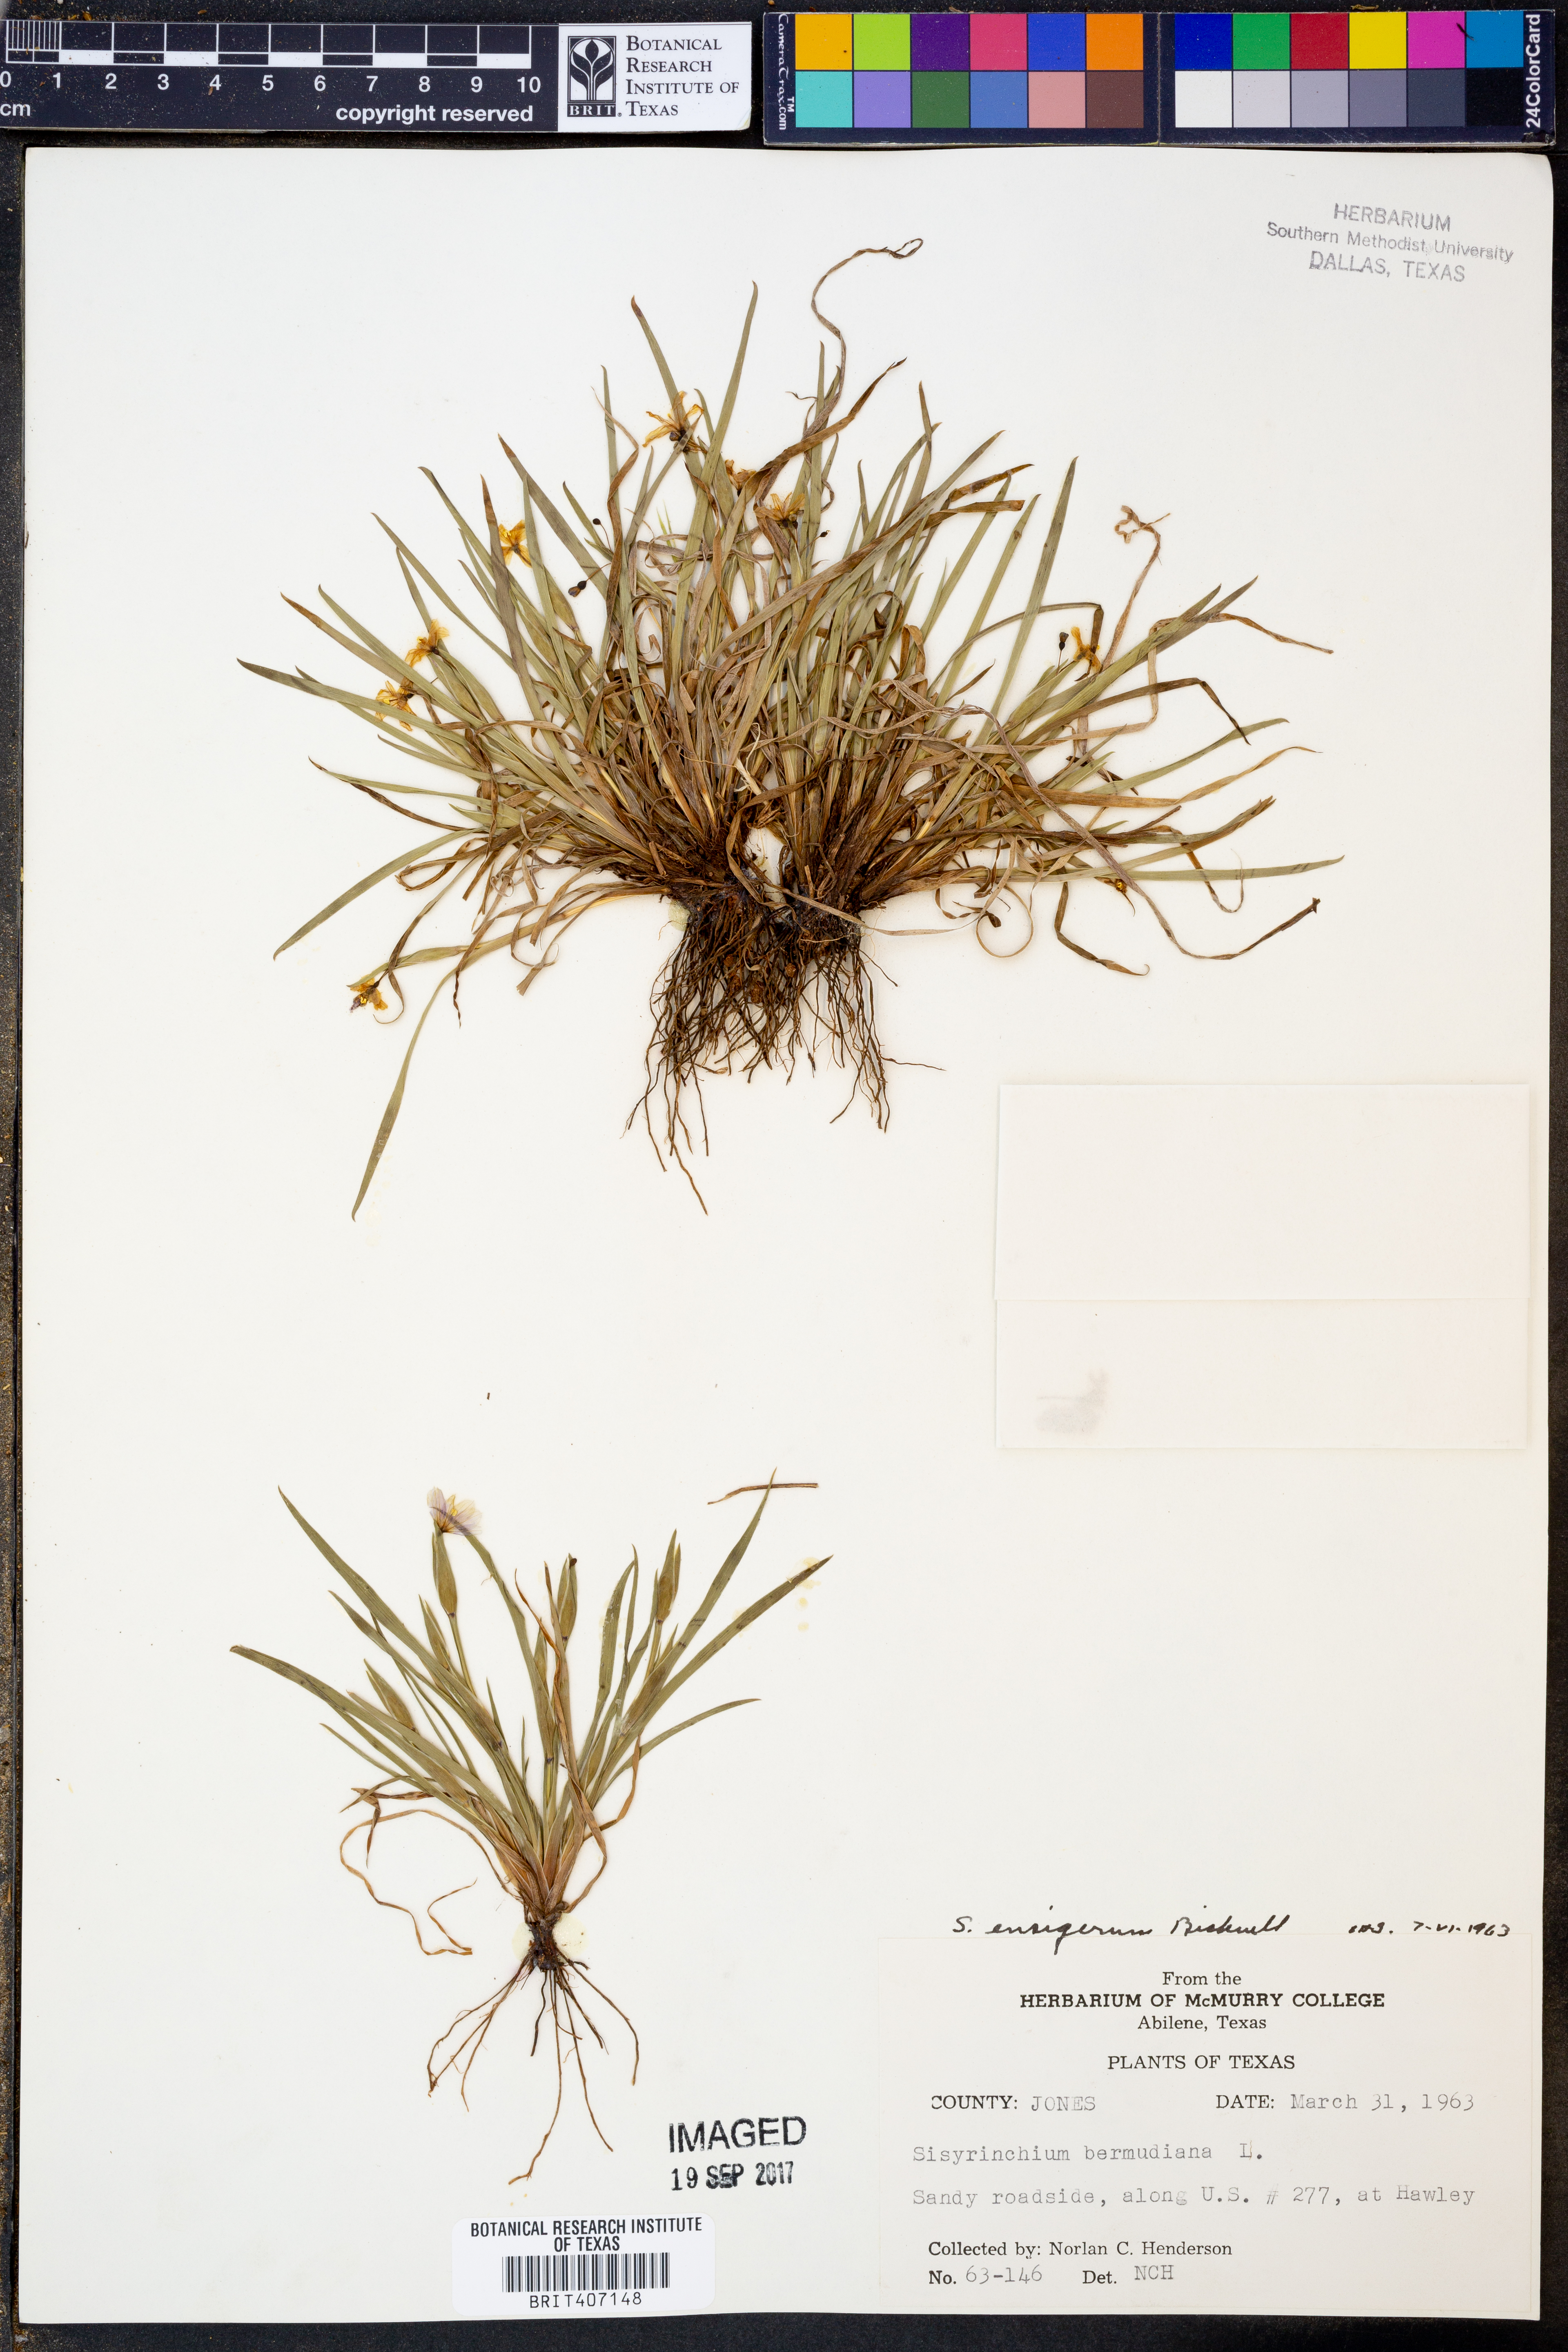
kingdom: Plantae
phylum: Tracheophyta
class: Liliopsida
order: Asparagales
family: Iridaceae
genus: Sisyrinchium
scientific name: Sisyrinchium ensigerum
